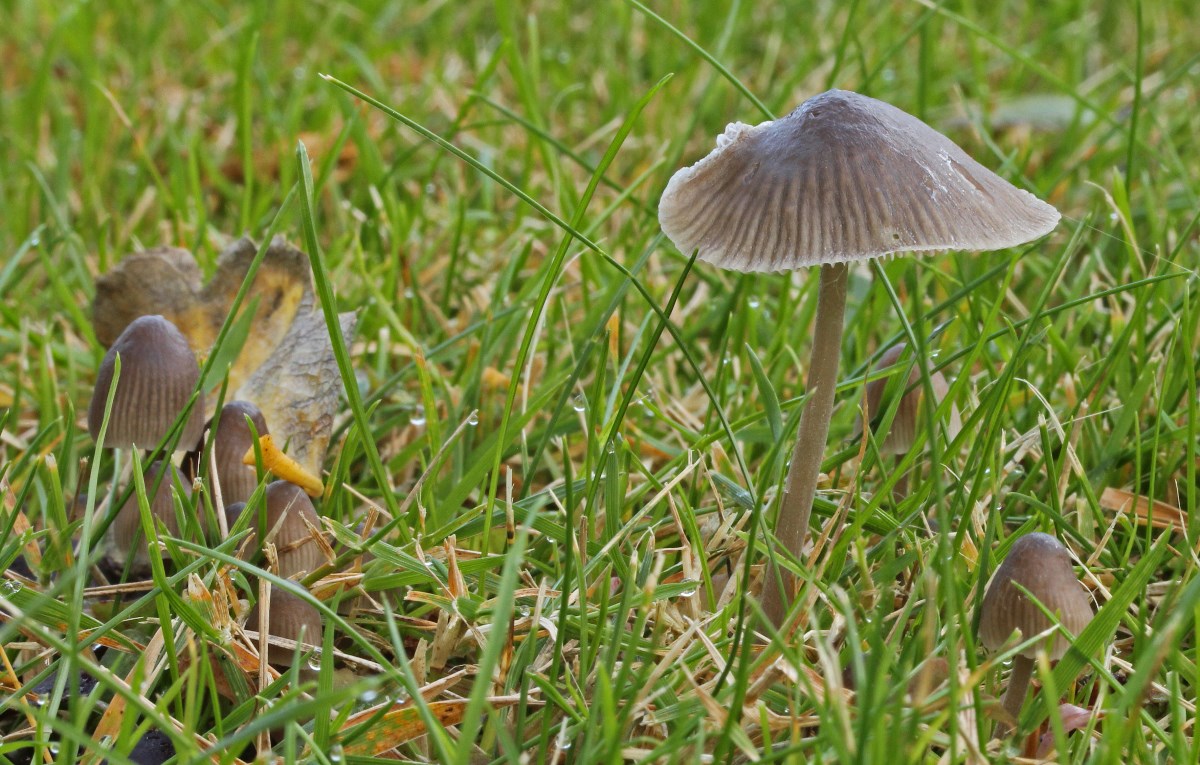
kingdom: Fungi
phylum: Basidiomycota
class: Agaricomycetes
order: Agaricales
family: Mycenaceae
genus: Mycena
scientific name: Mycena leptocephala
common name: klor-huesvamp
